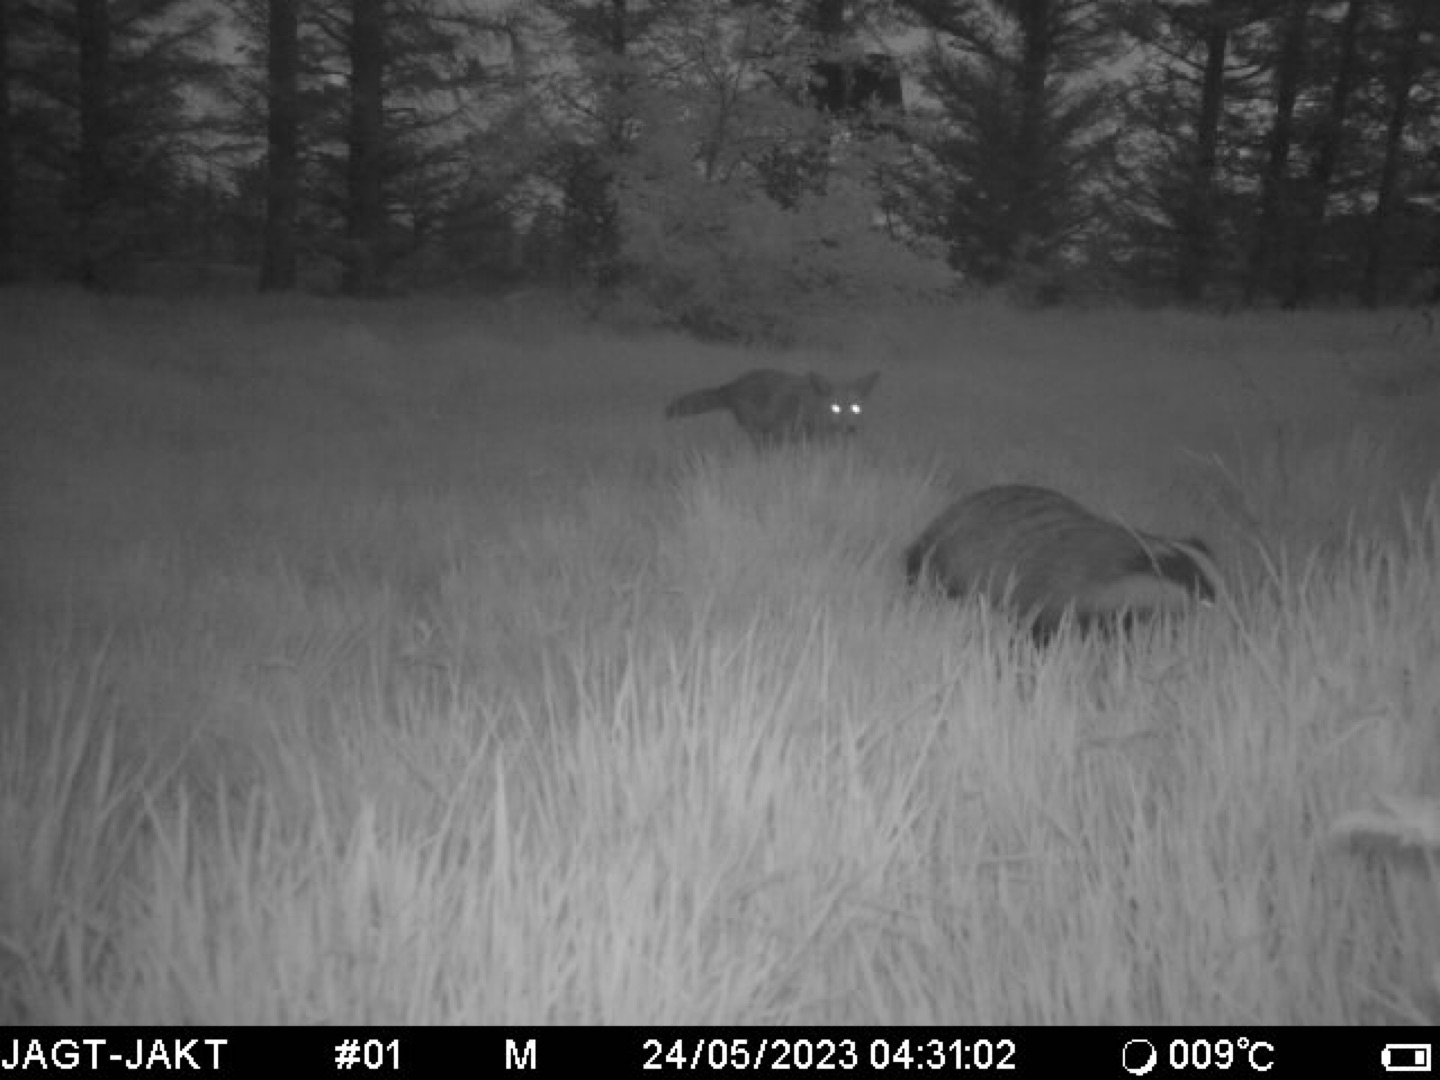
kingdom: Animalia
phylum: Chordata
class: Mammalia
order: Carnivora
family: Mustelidae
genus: Meles
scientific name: Meles meles
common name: Grævling
